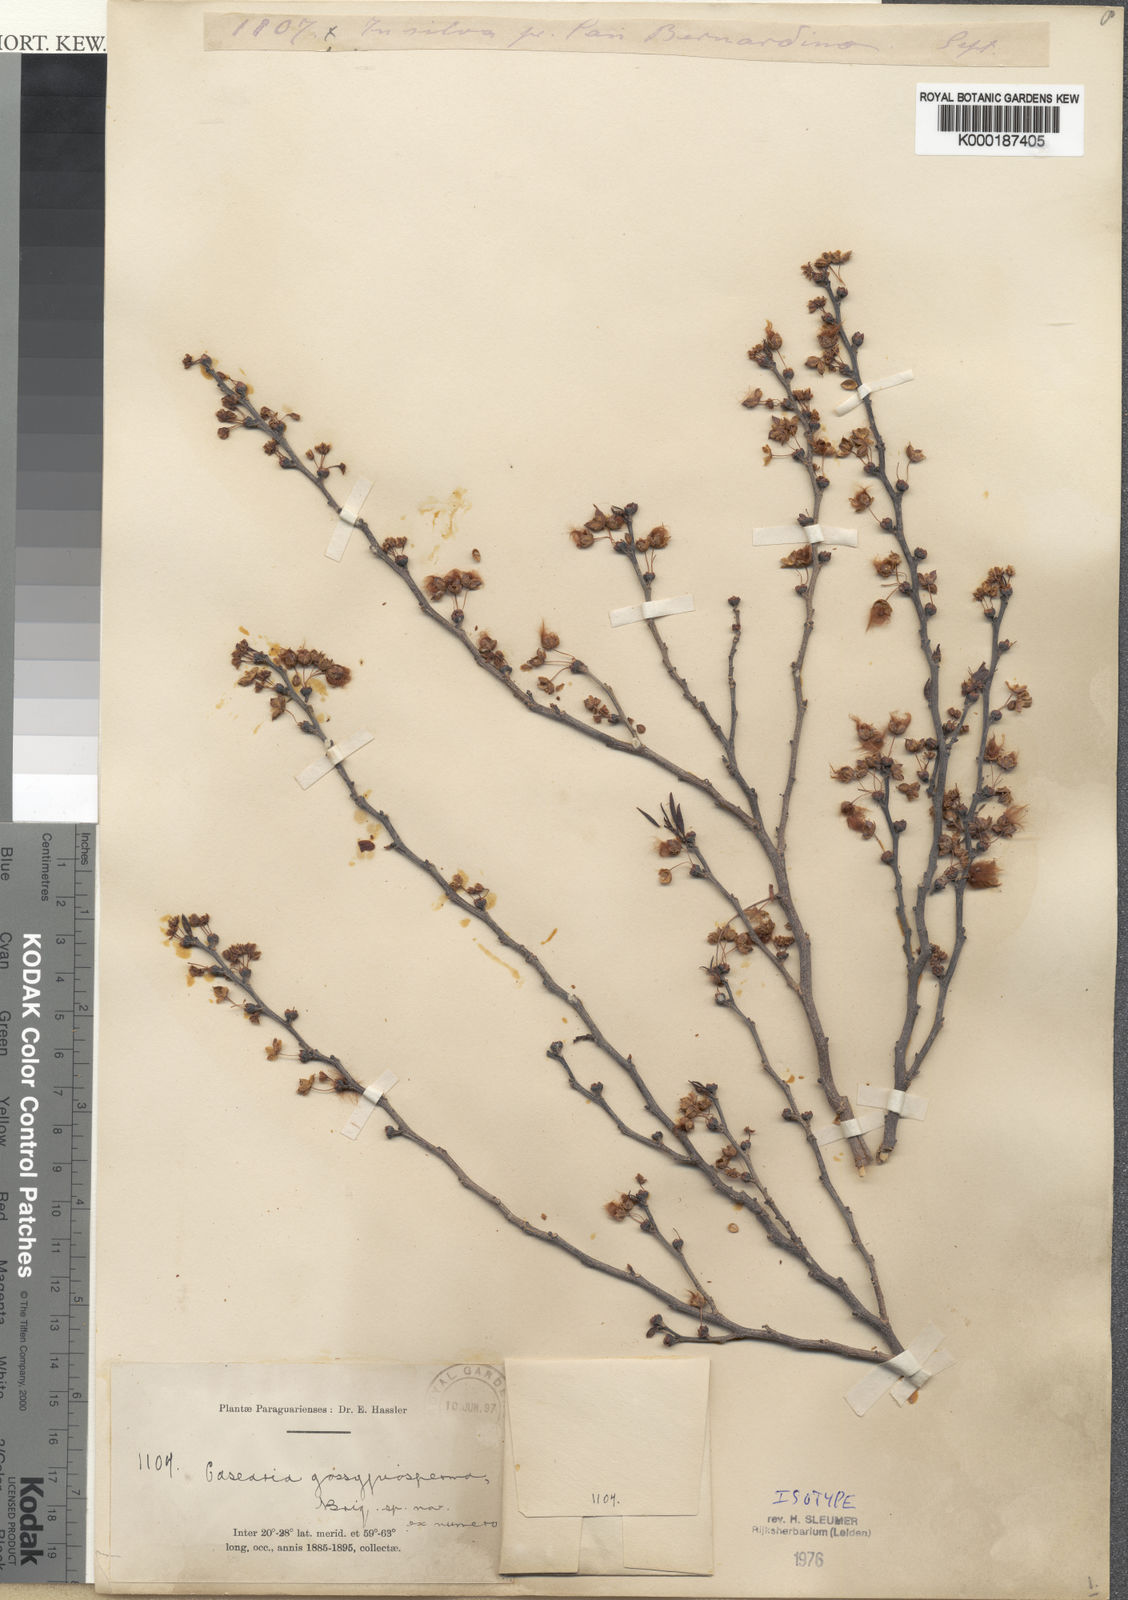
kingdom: Plantae
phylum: Tracheophyta
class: Magnoliopsida
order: Malpighiales
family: Salicaceae
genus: Casearia
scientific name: Casearia gossypiosperma
